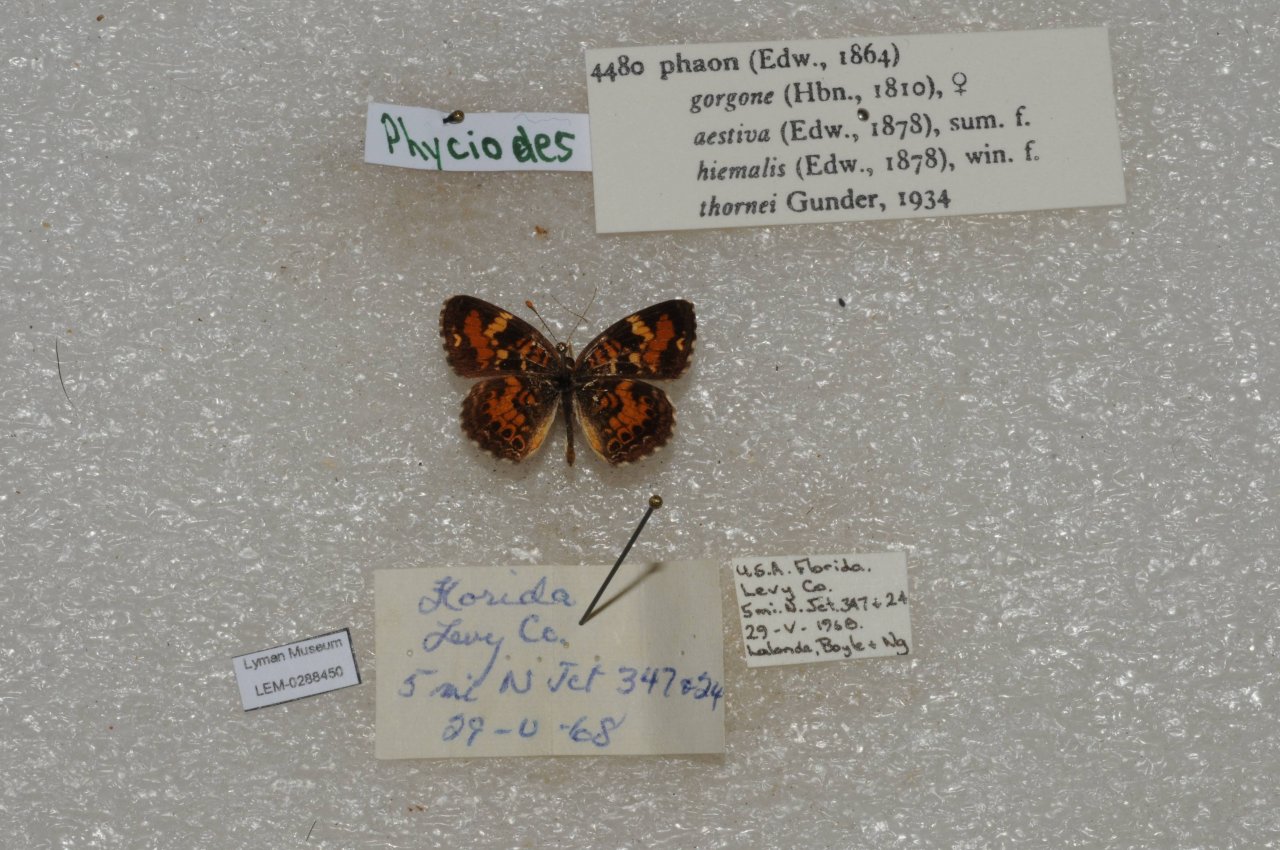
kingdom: Animalia
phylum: Arthropoda
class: Insecta
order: Lepidoptera
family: Nymphalidae
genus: Phyciodes
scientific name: Phyciodes phaon
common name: Phaon Crescent
